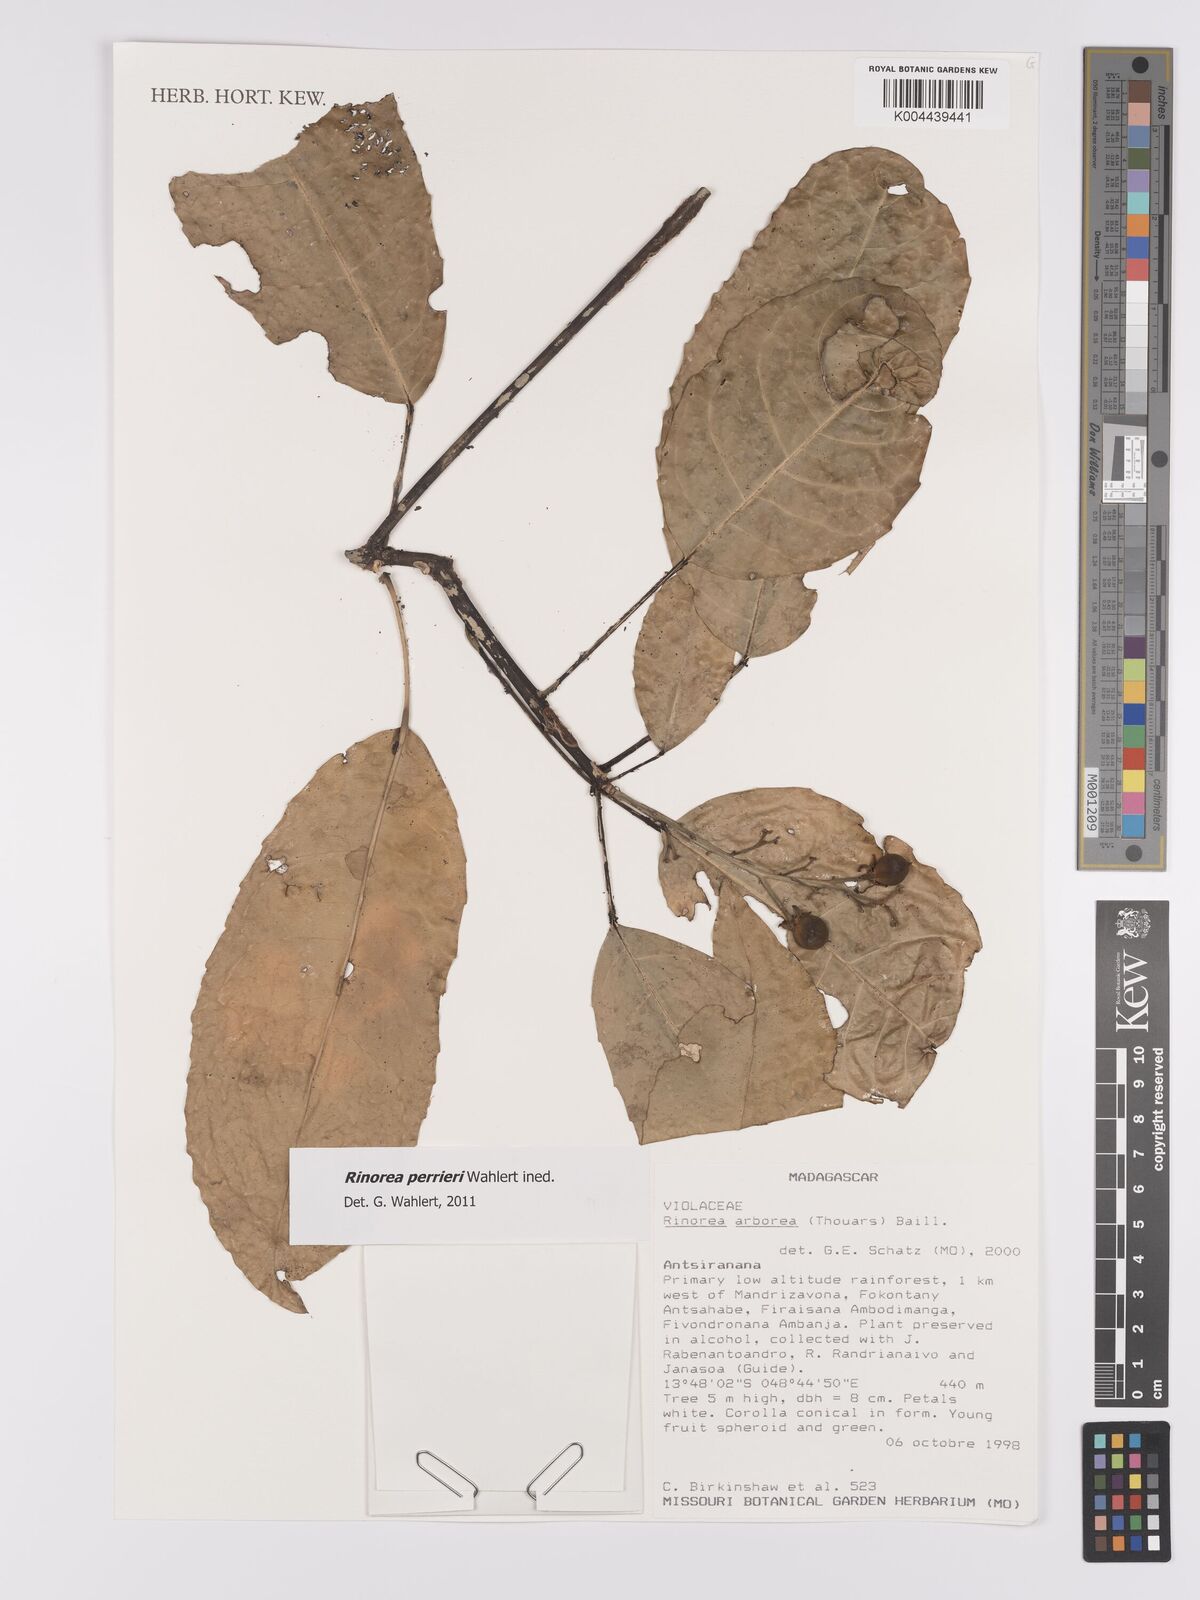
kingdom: Plantae
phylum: Tracheophyta
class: Magnoliopsida
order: Malpighiales
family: Violaceae
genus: Rinorea
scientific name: Rinorea
